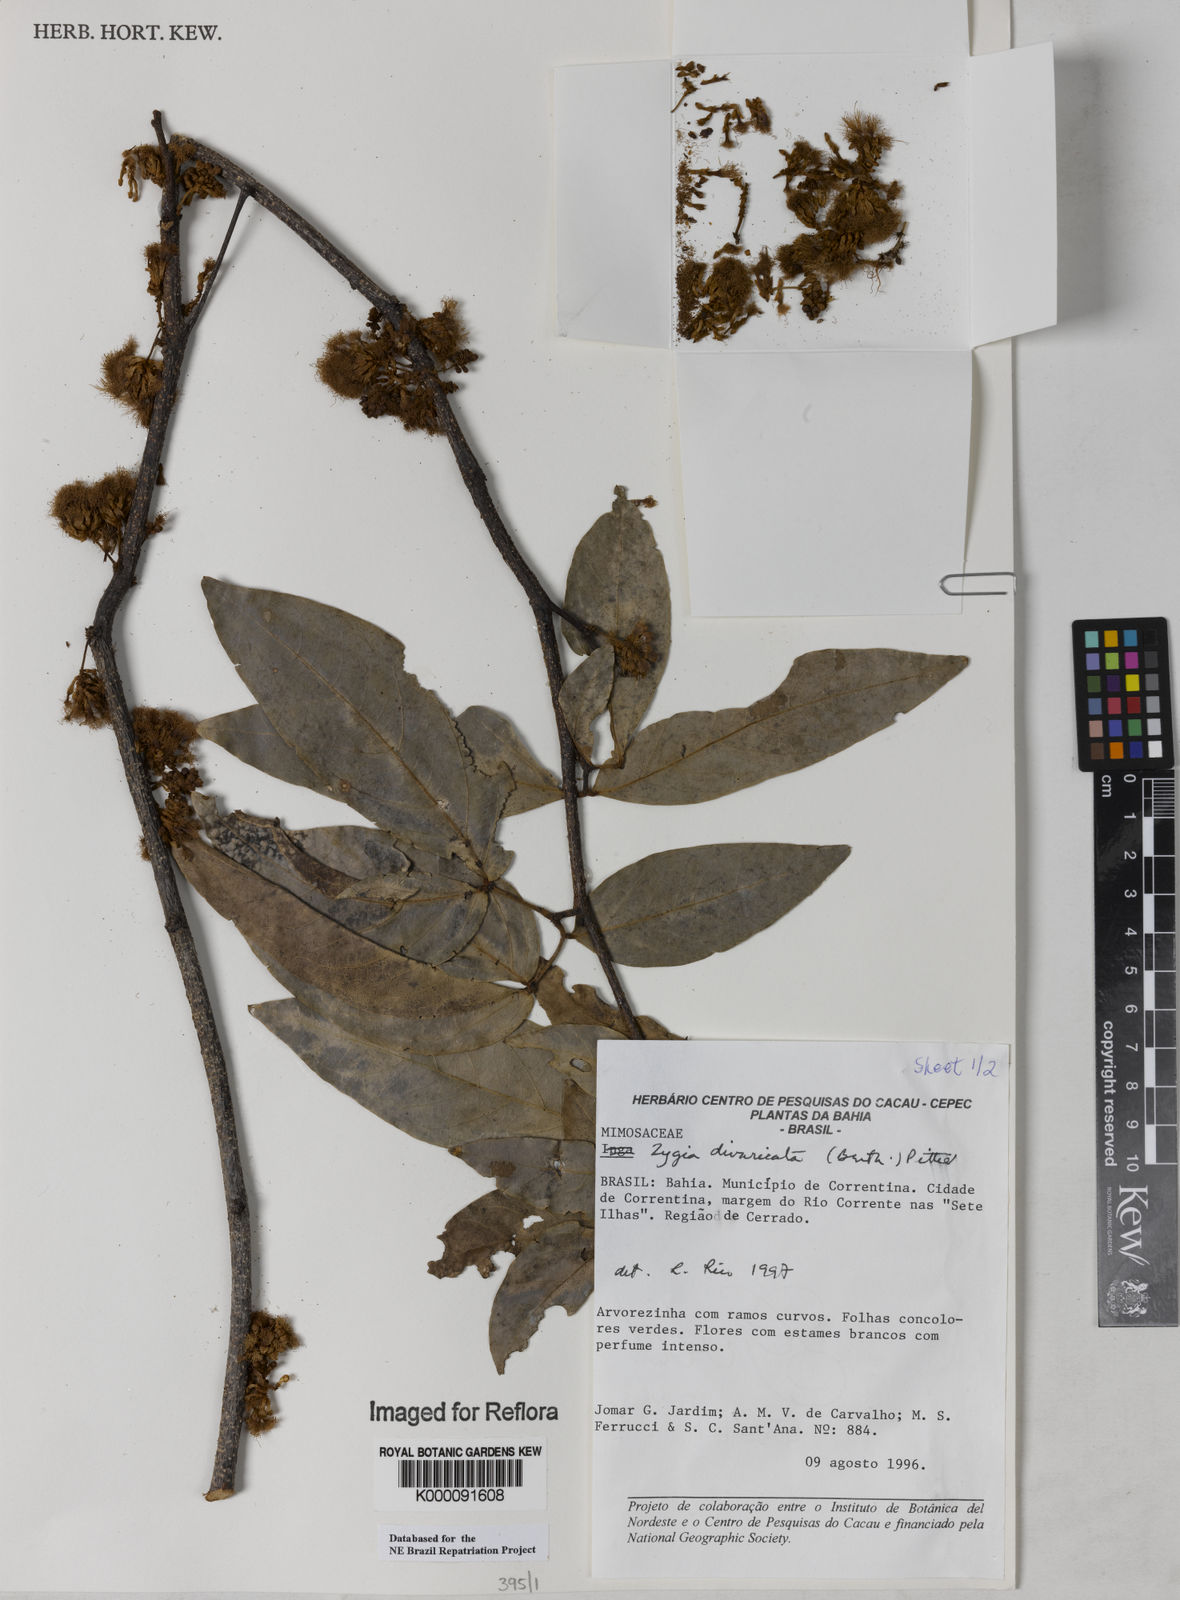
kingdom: Plantae
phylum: Tracheophyta
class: Magnoliopsida
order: Fabales
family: Fabaceae
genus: Zygia
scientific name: Zygia cataractae
